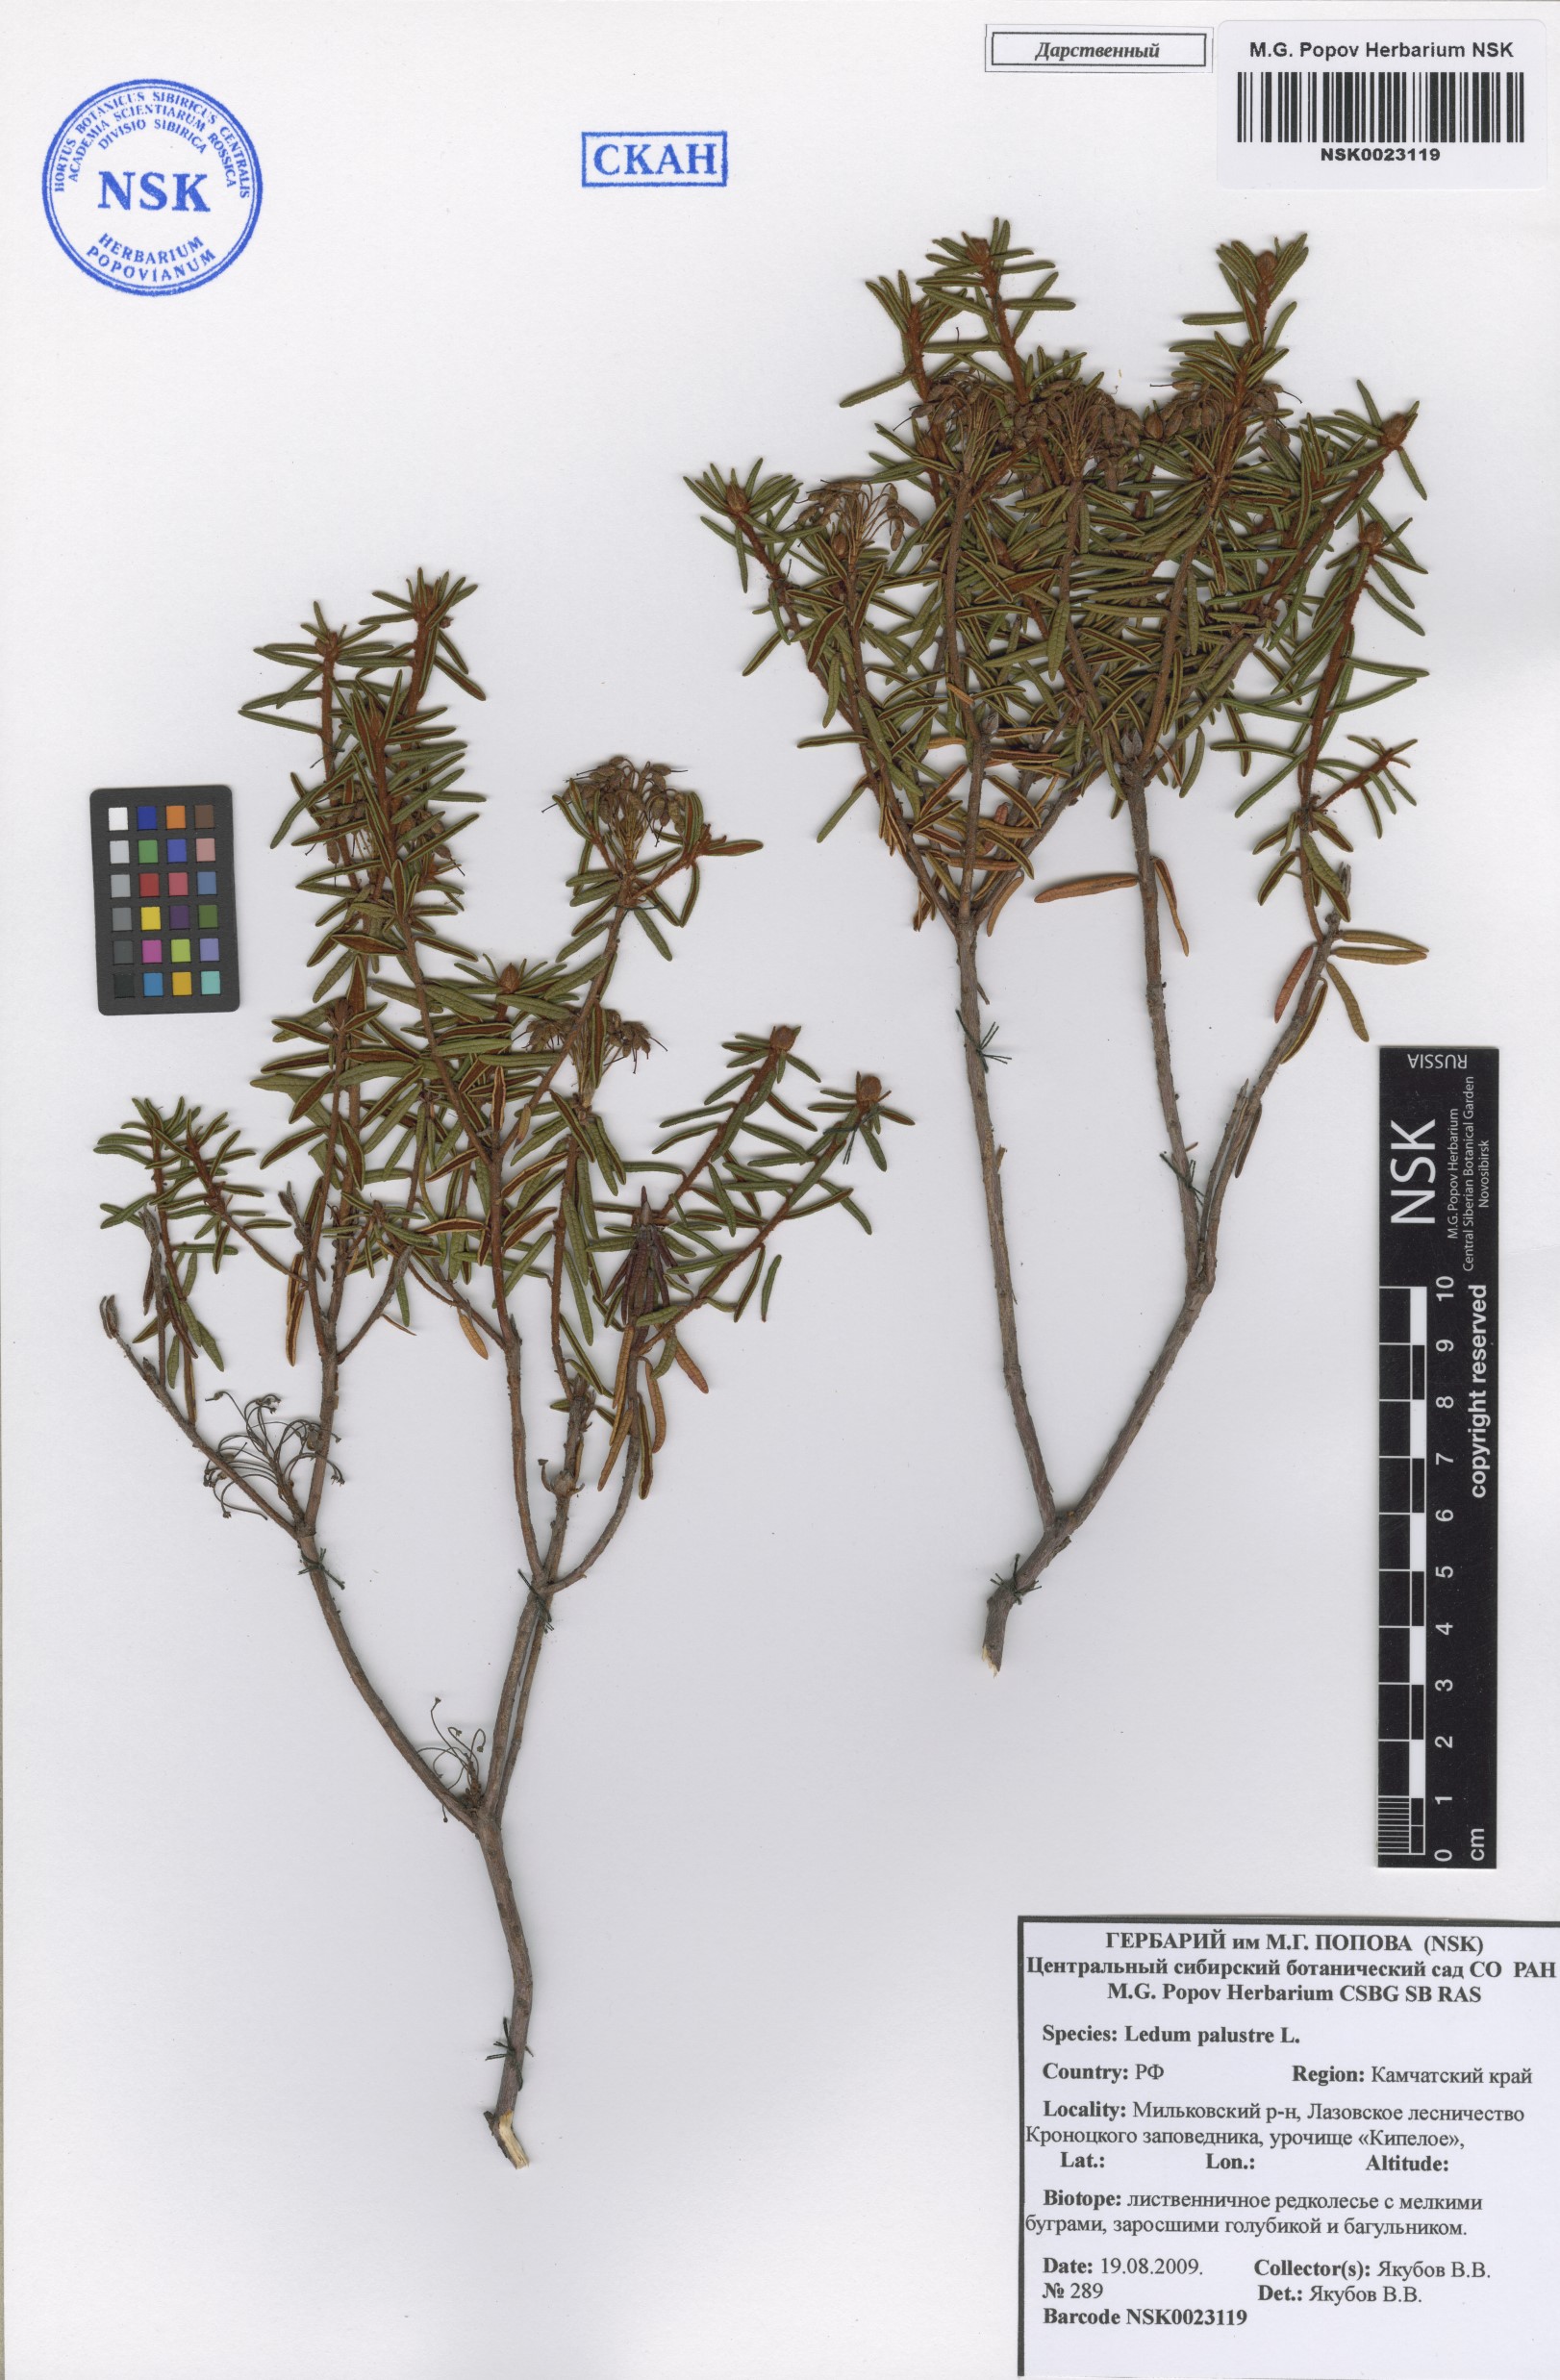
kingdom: Plantae
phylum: Tracheophyta
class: Magnoliopsida
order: Ericales
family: Ericaceae
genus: Rhododendron
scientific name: Rhododendron tomentosum
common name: Marsh labrador tea
